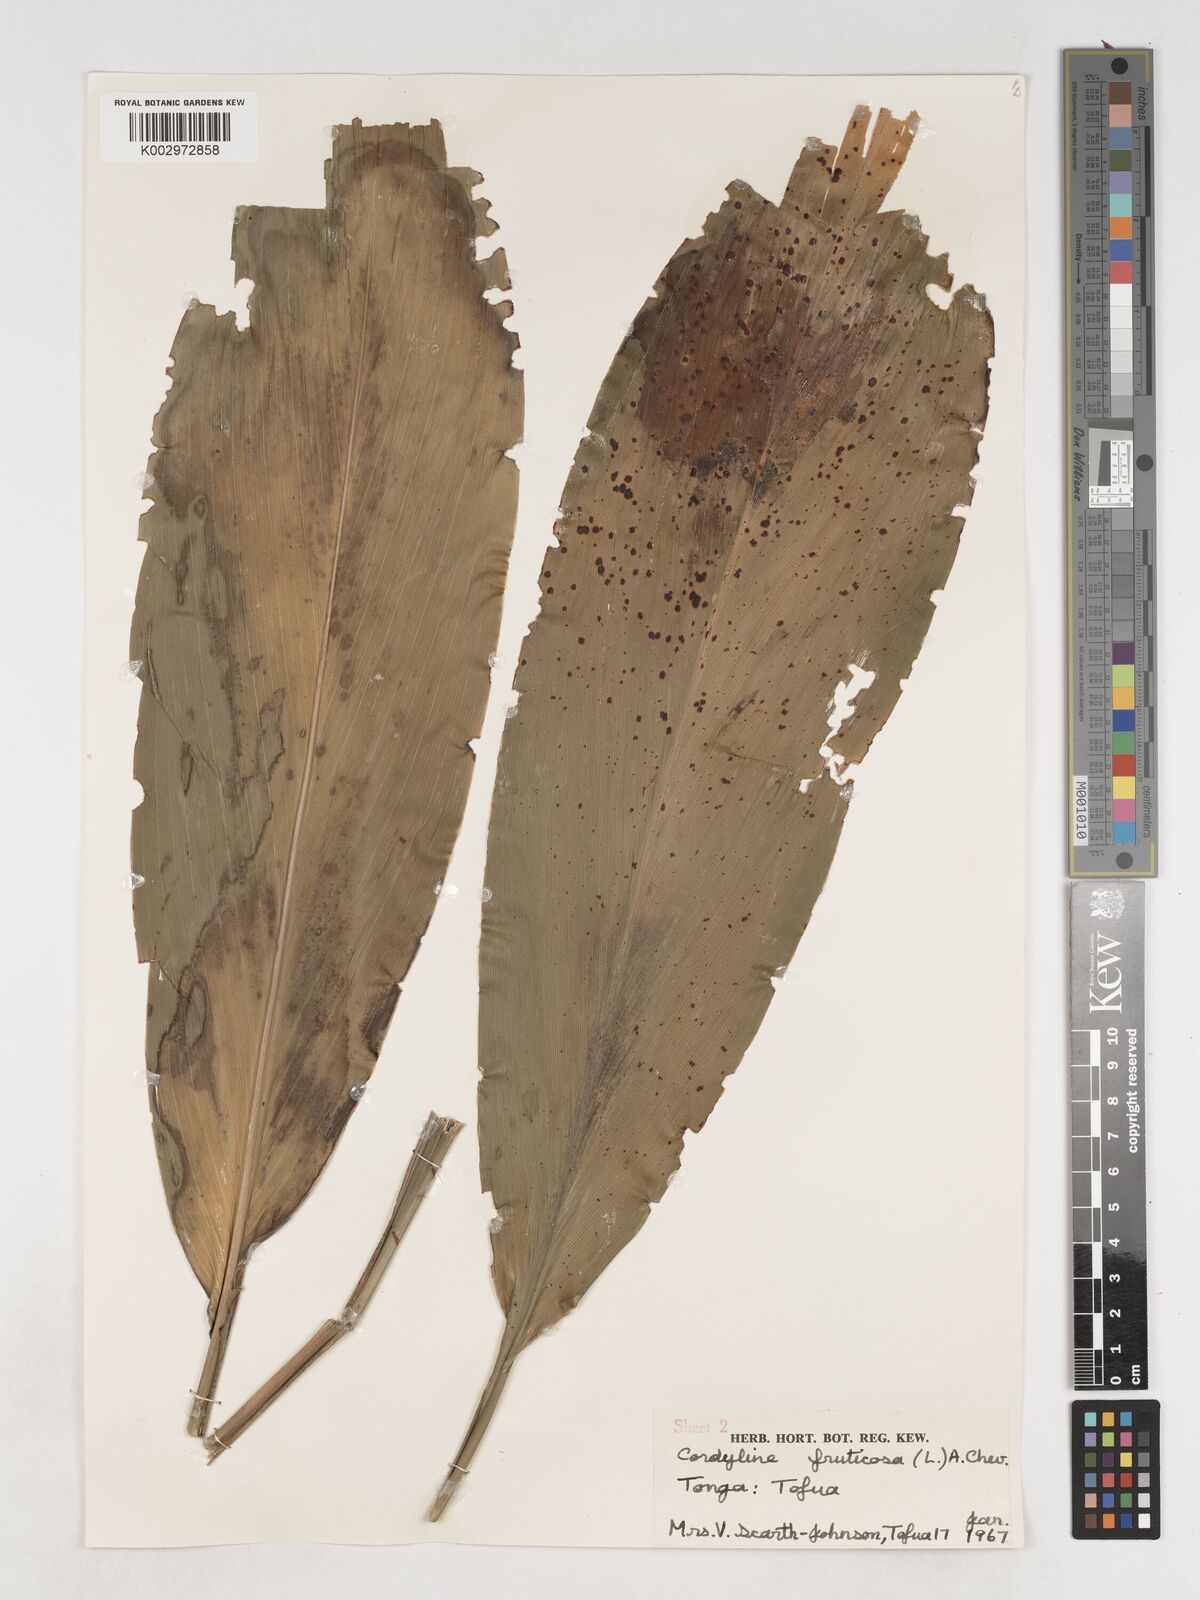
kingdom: Plantae
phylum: Tracheophyta
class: Liliopsida
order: Asparagales
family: Asparagaceae
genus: Cordyline
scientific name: Cordyline fruticosa
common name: Good-luck-plant
